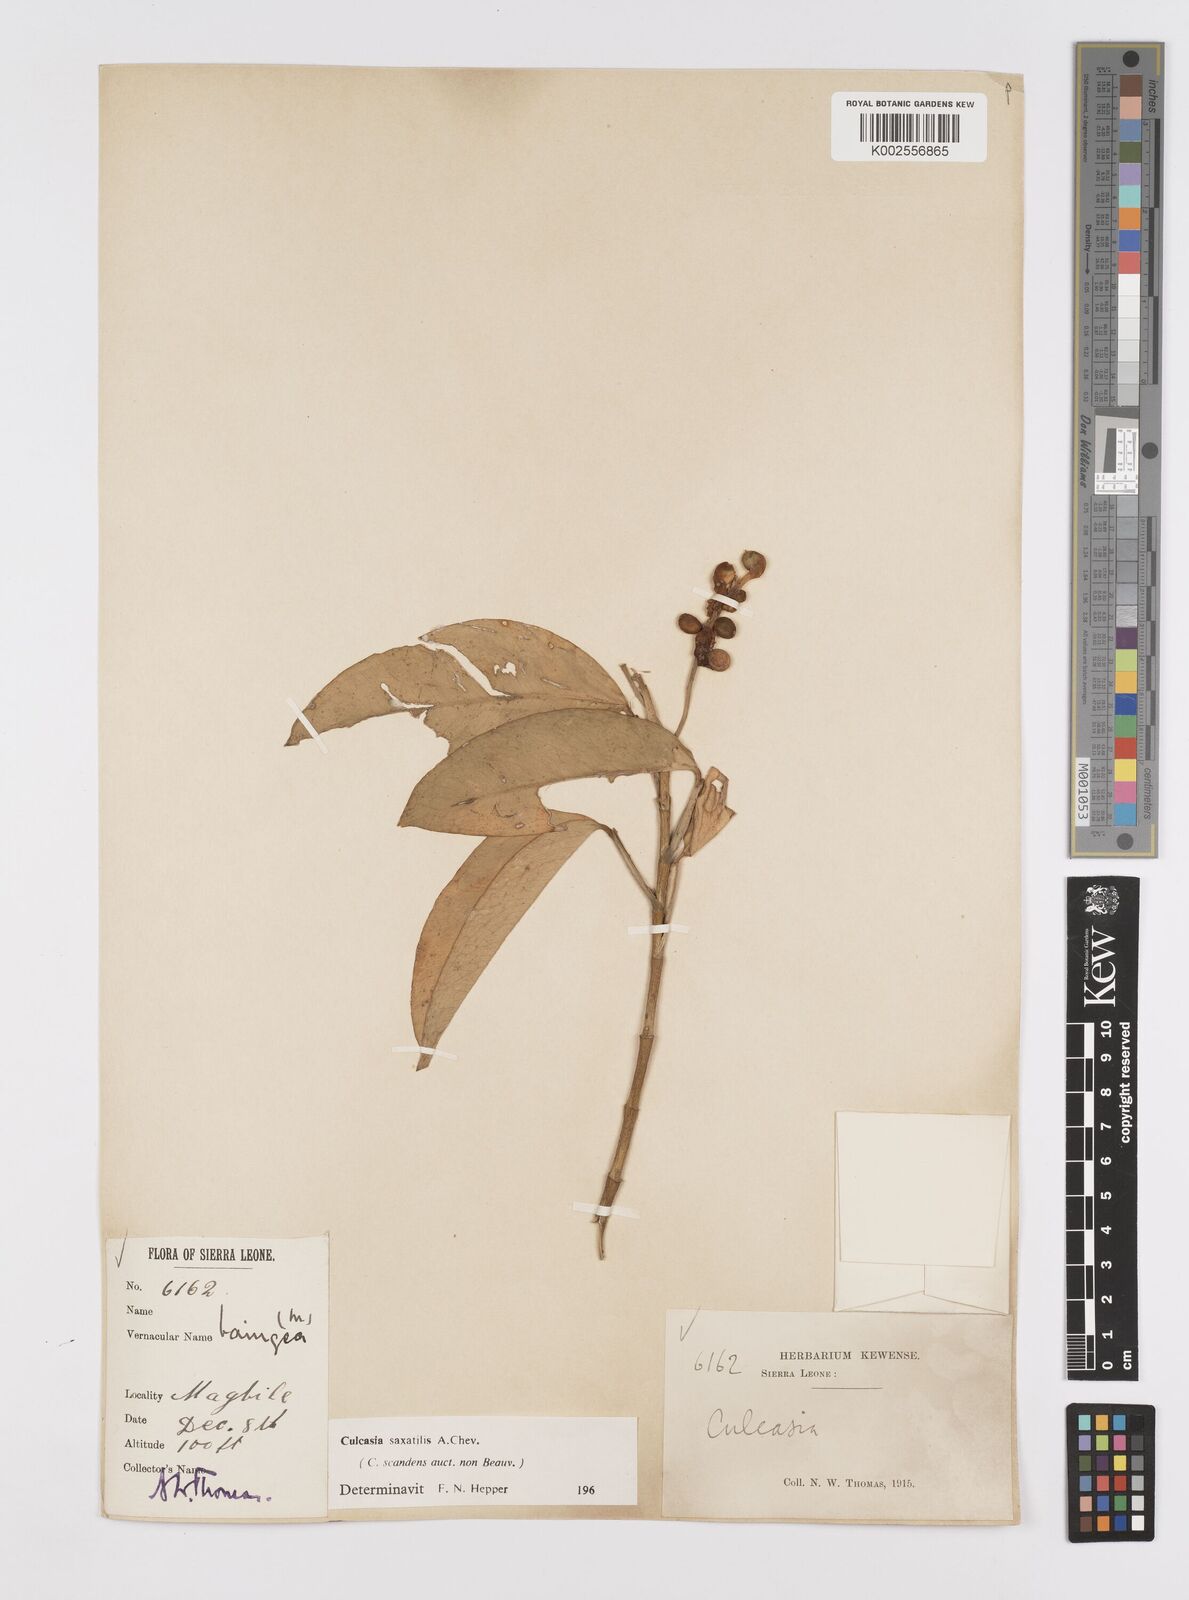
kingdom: Plantae
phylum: Tracheophyta
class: Liliopsida
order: Alismatales
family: Araceae
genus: Culcasia
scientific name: Culcasia scandens
